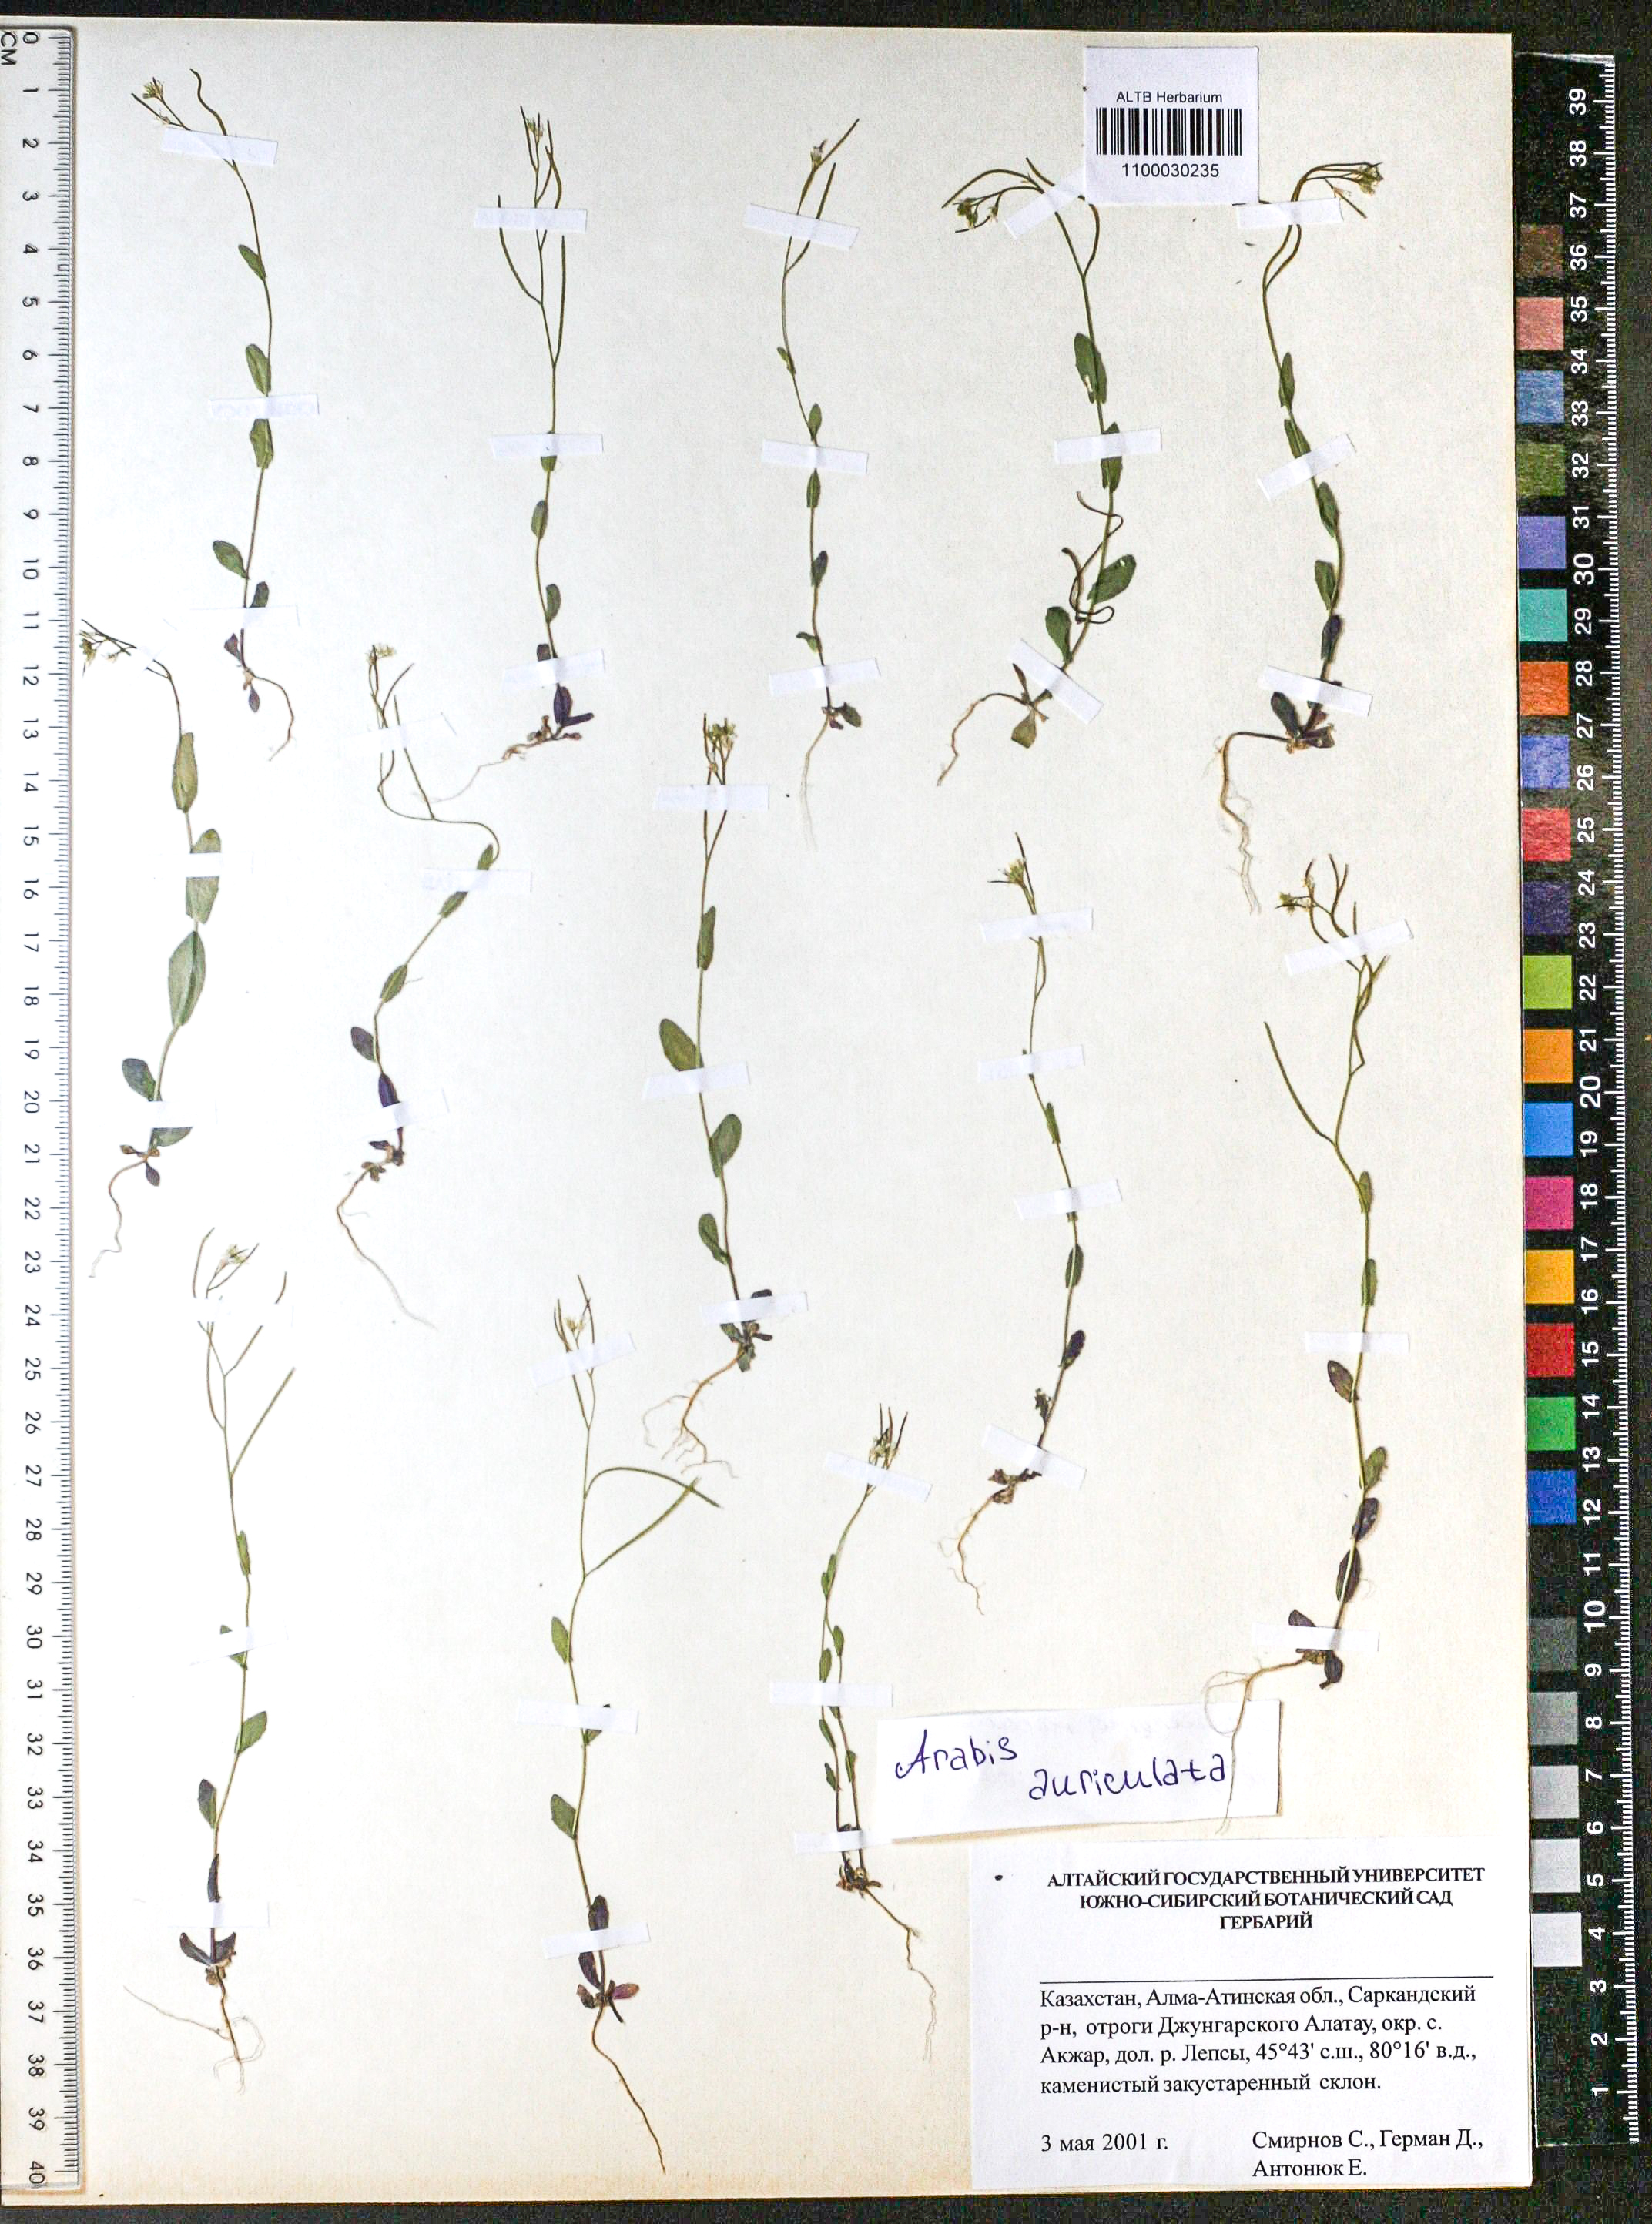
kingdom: Plantae
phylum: Tracheophyta
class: Magnoliopsida
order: Brassicales
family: Brassicaceae
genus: Arabis
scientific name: Arabis auriculata
